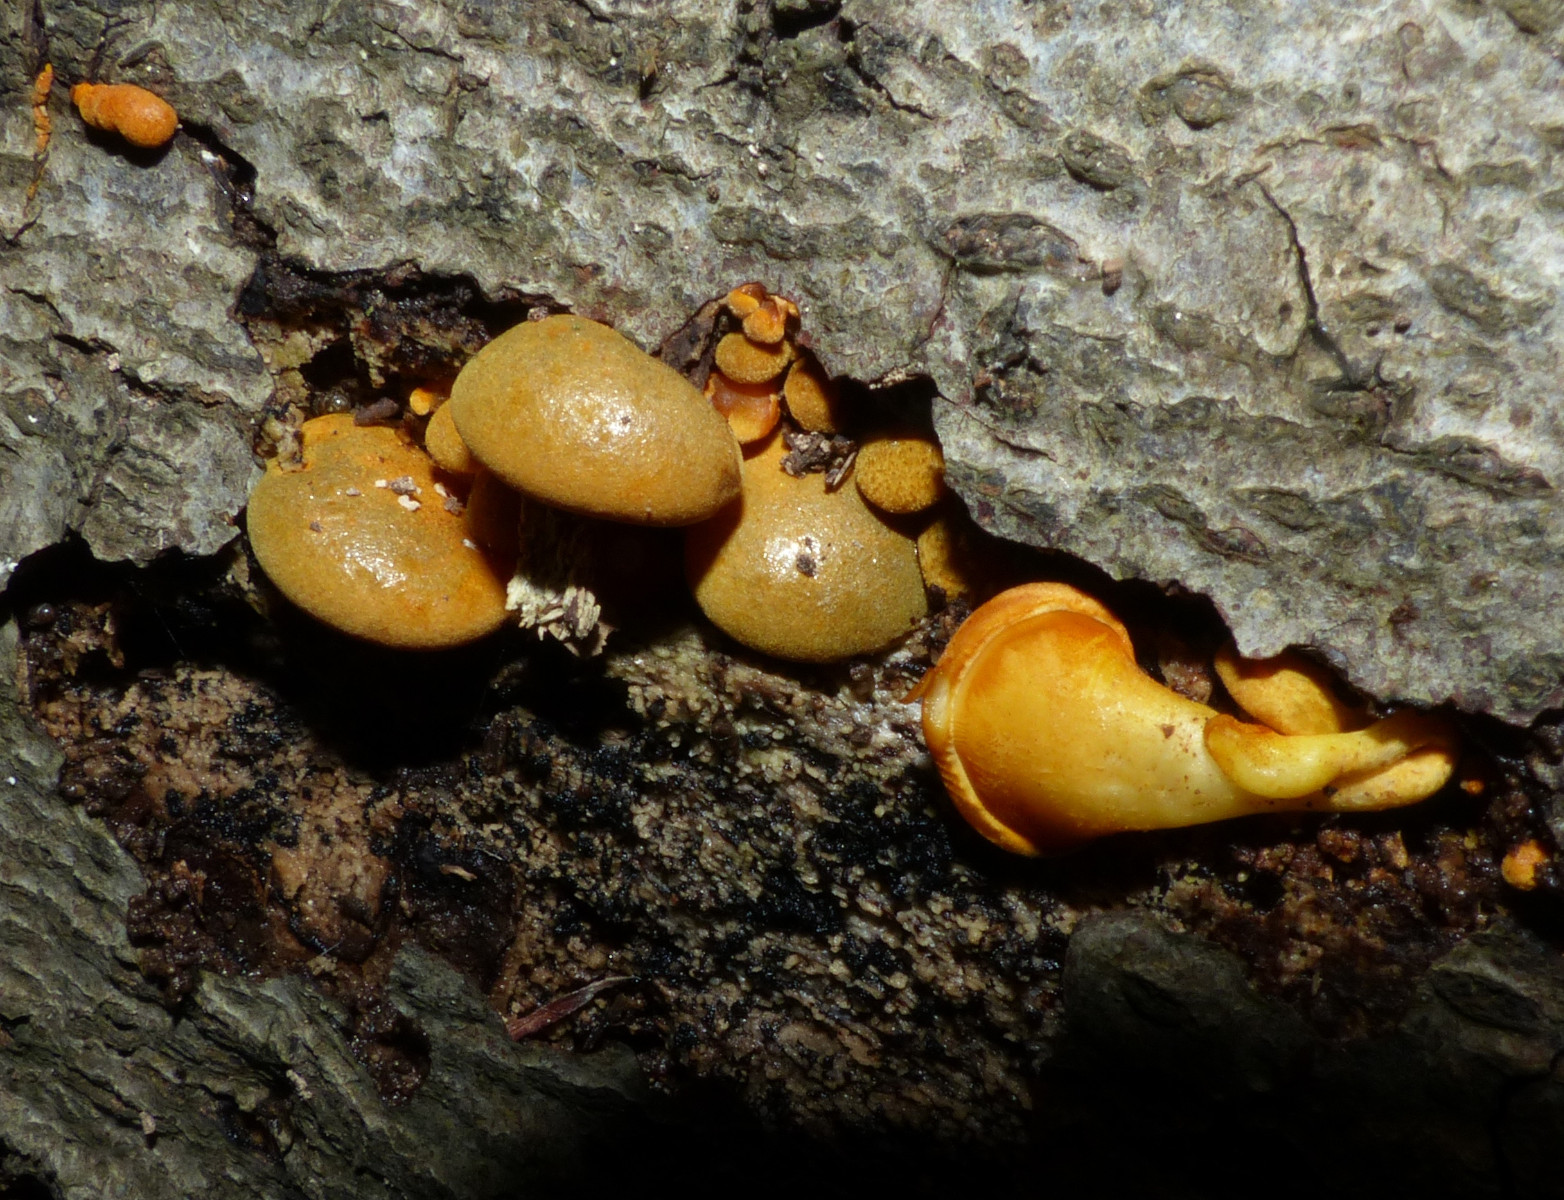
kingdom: Fungi
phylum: Basidiomycota
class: Agaricomycetes
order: Agaricales
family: Sarcomyxaceae
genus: Sarcomyxa
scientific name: Sarcomyxa serotina
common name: gummihat
